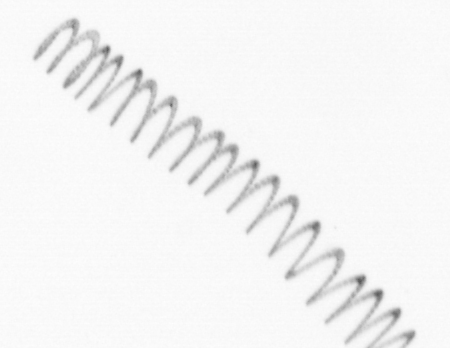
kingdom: Chromista
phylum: Ochrophyta
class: Bacillariophyceae
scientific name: Bacillariophyceae
